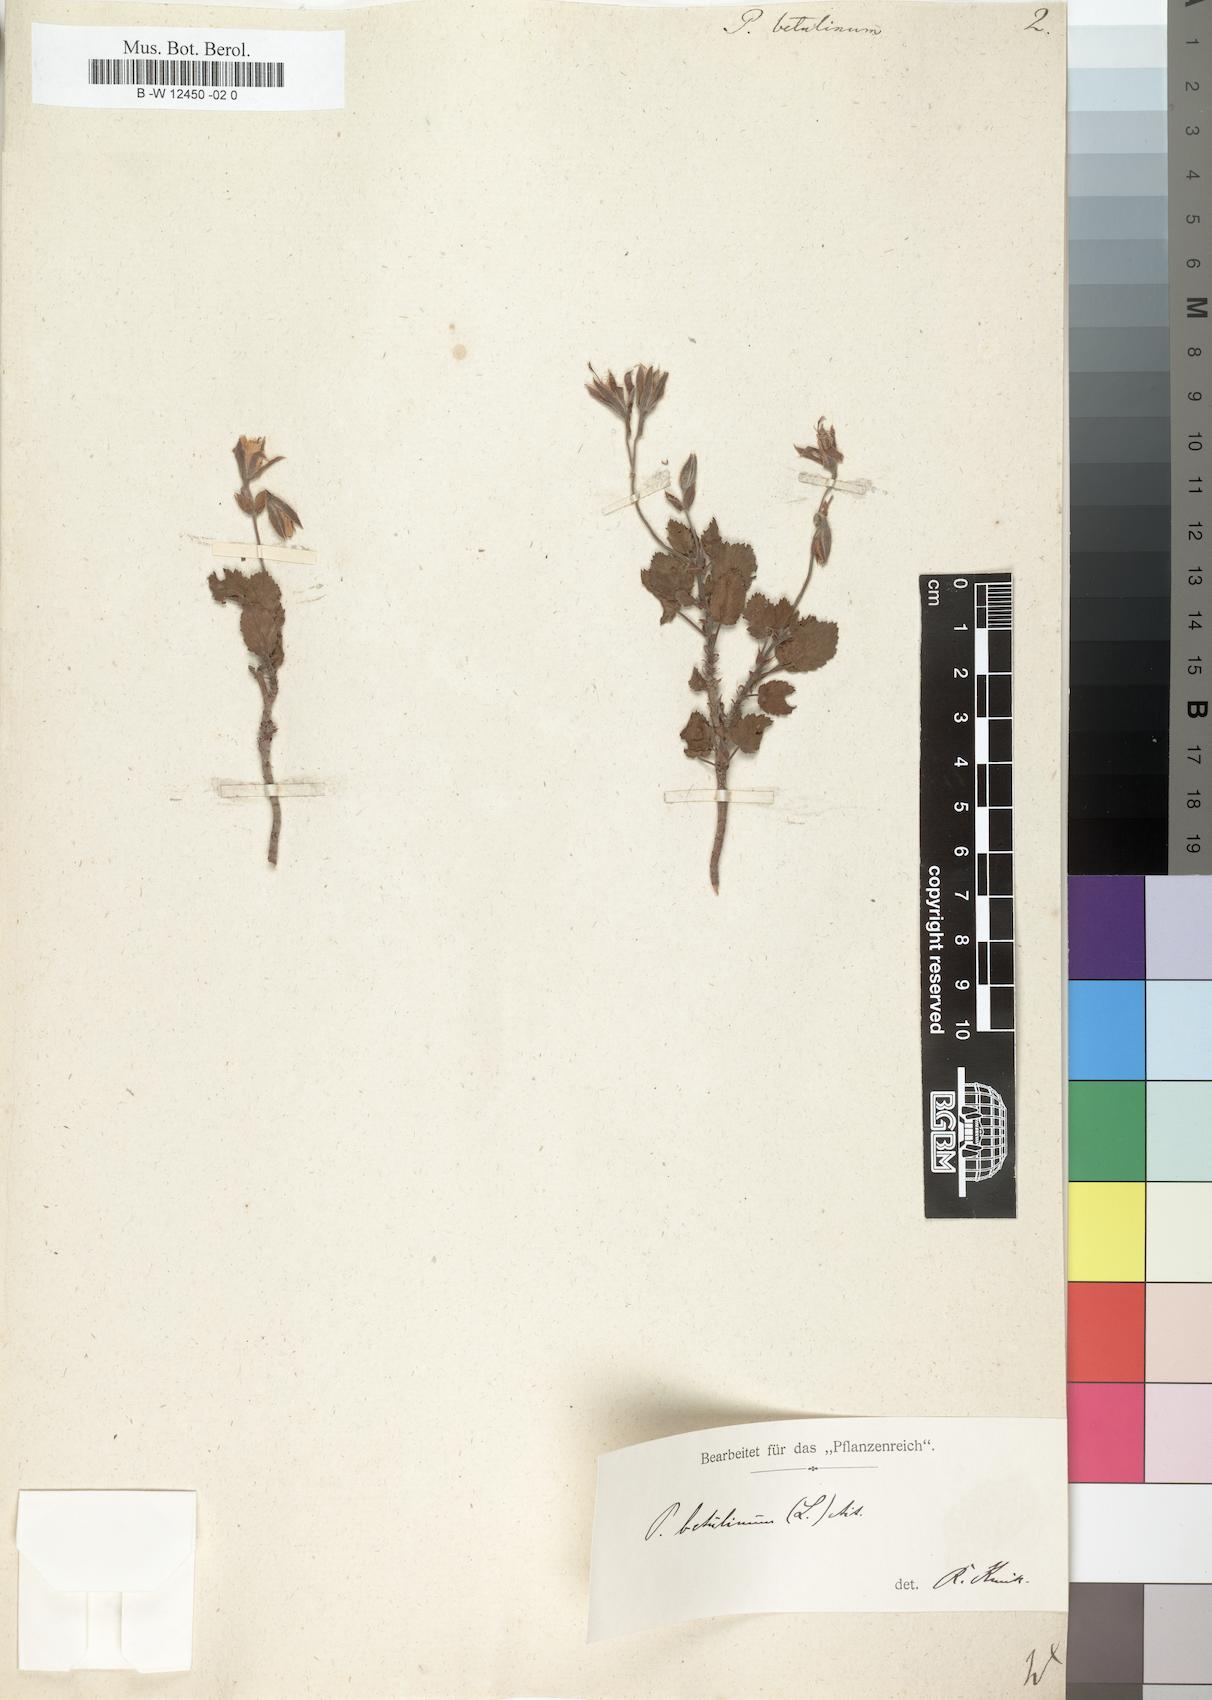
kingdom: Plantae
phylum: Tracheophyta
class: Magnoliopsida
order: Geraniales
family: Geraniaceae
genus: Pelargonium
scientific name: Pelargonium betulinum
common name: Birch-leaf pelargonium
